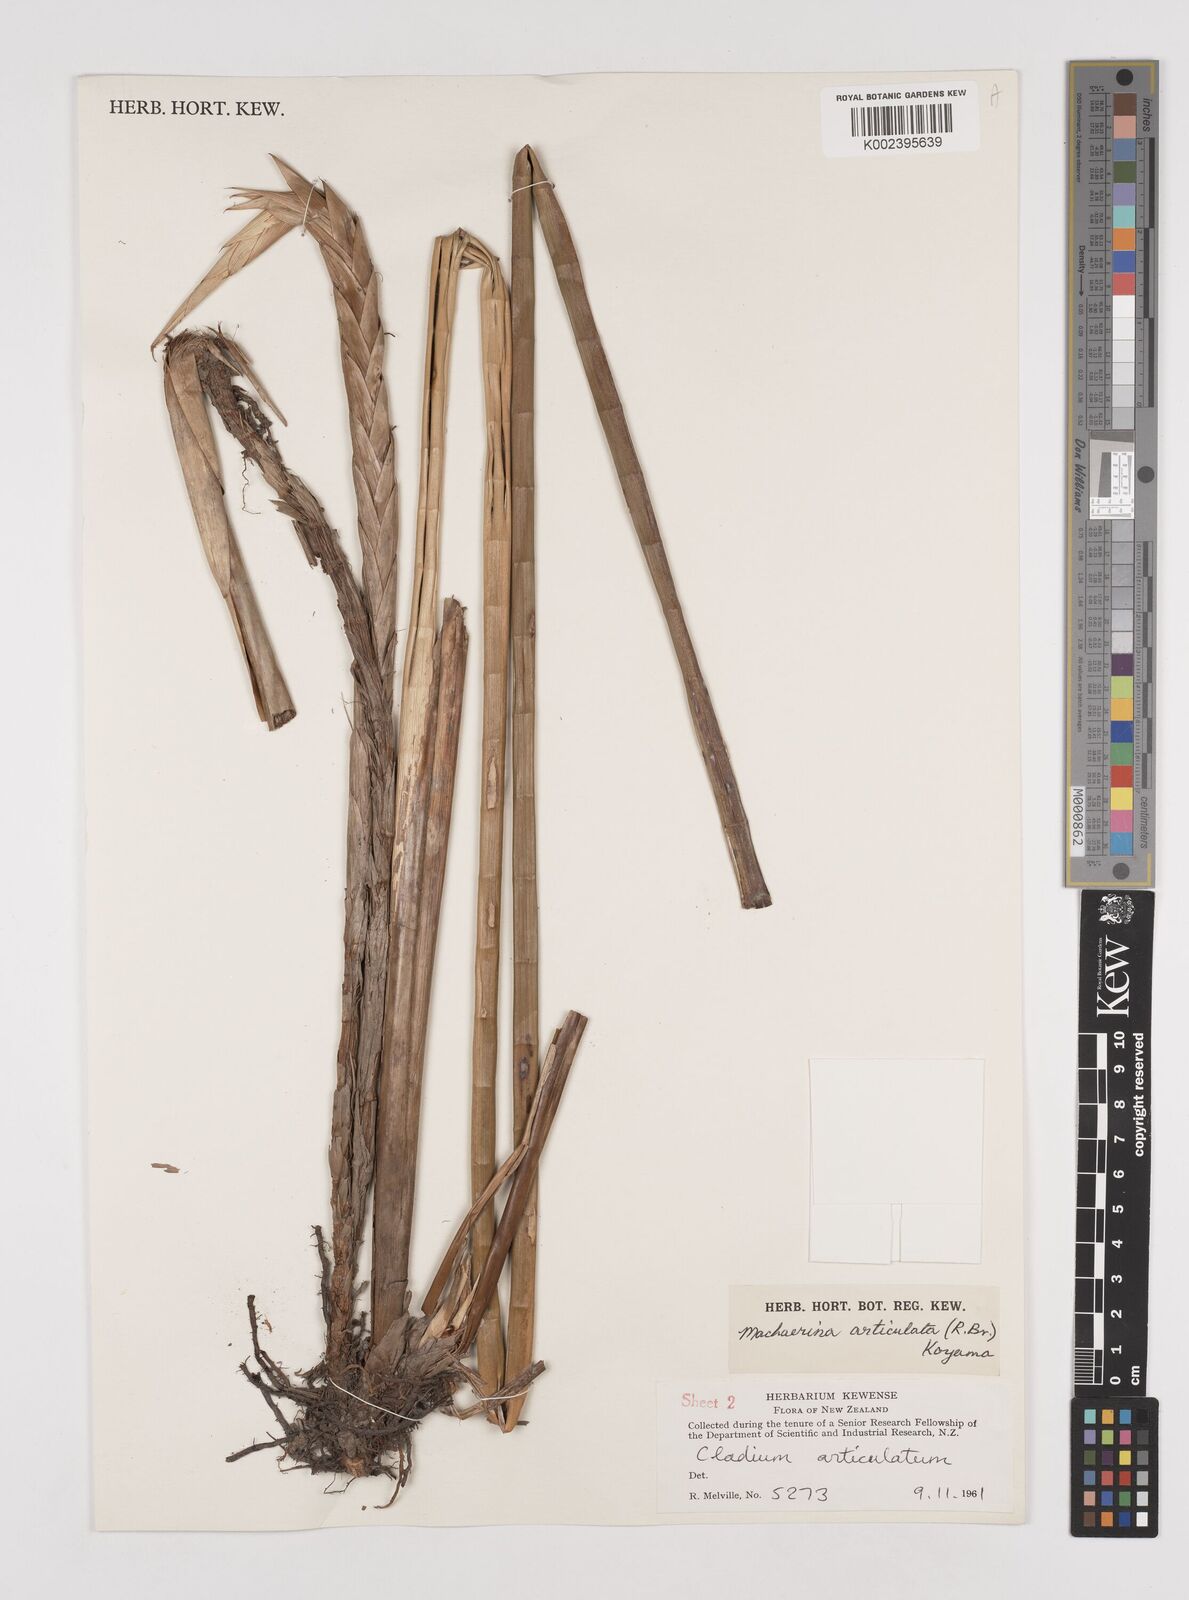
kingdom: Plantae
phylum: Tracheophyta
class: Liliopsida
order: Poales
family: Cyperaceae
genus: Machaerina
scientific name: Machaerina articulata
